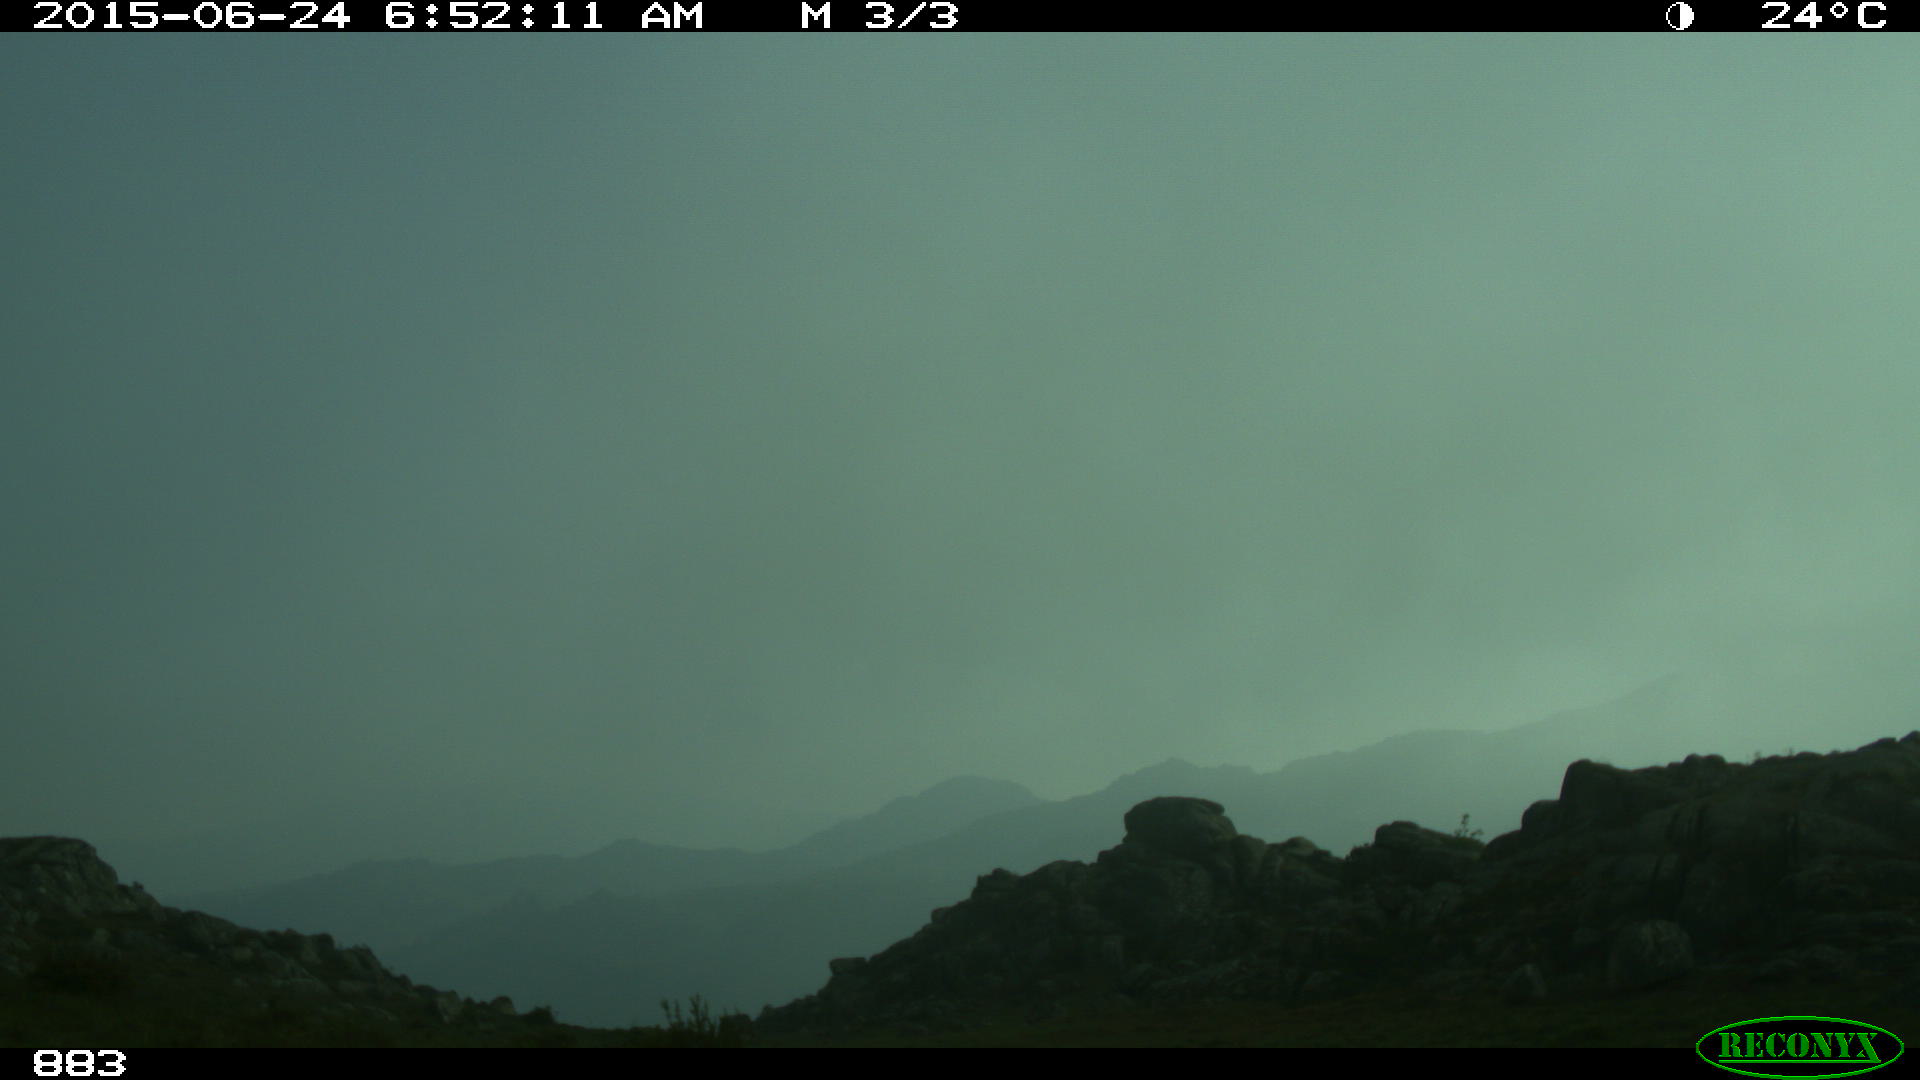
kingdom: Animalia
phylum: Chordata
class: Mammalia
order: Artiodactyla
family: Bovidae
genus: Bos
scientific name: Bos taurus
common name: Domesticated cattle
